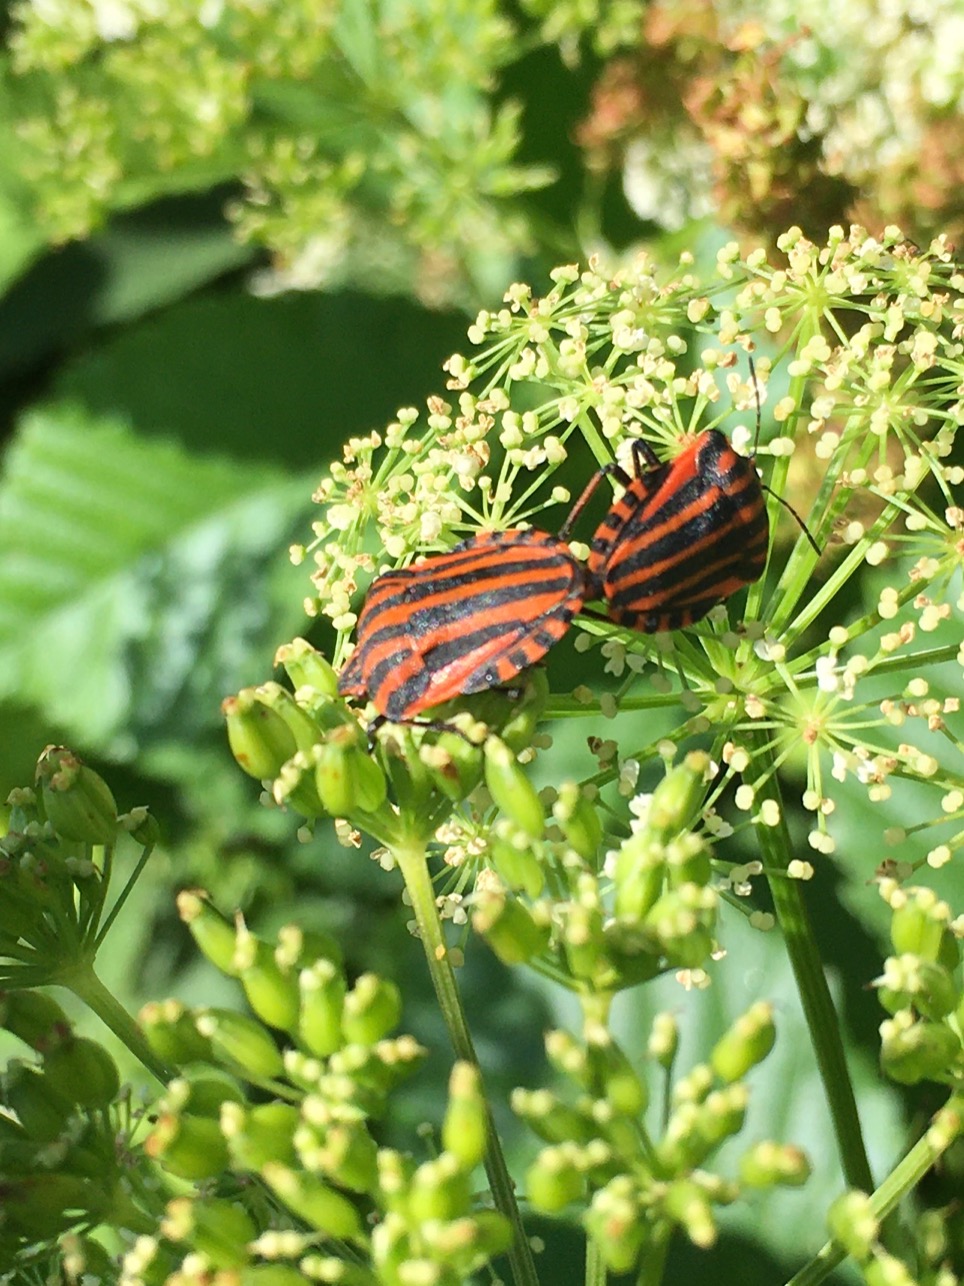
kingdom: Animalia
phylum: Arthropoda
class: Insecta
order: Hemiptera
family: Pentatomidae
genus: Graphosoma
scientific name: Graphosoma italicum
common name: Stribetæge
